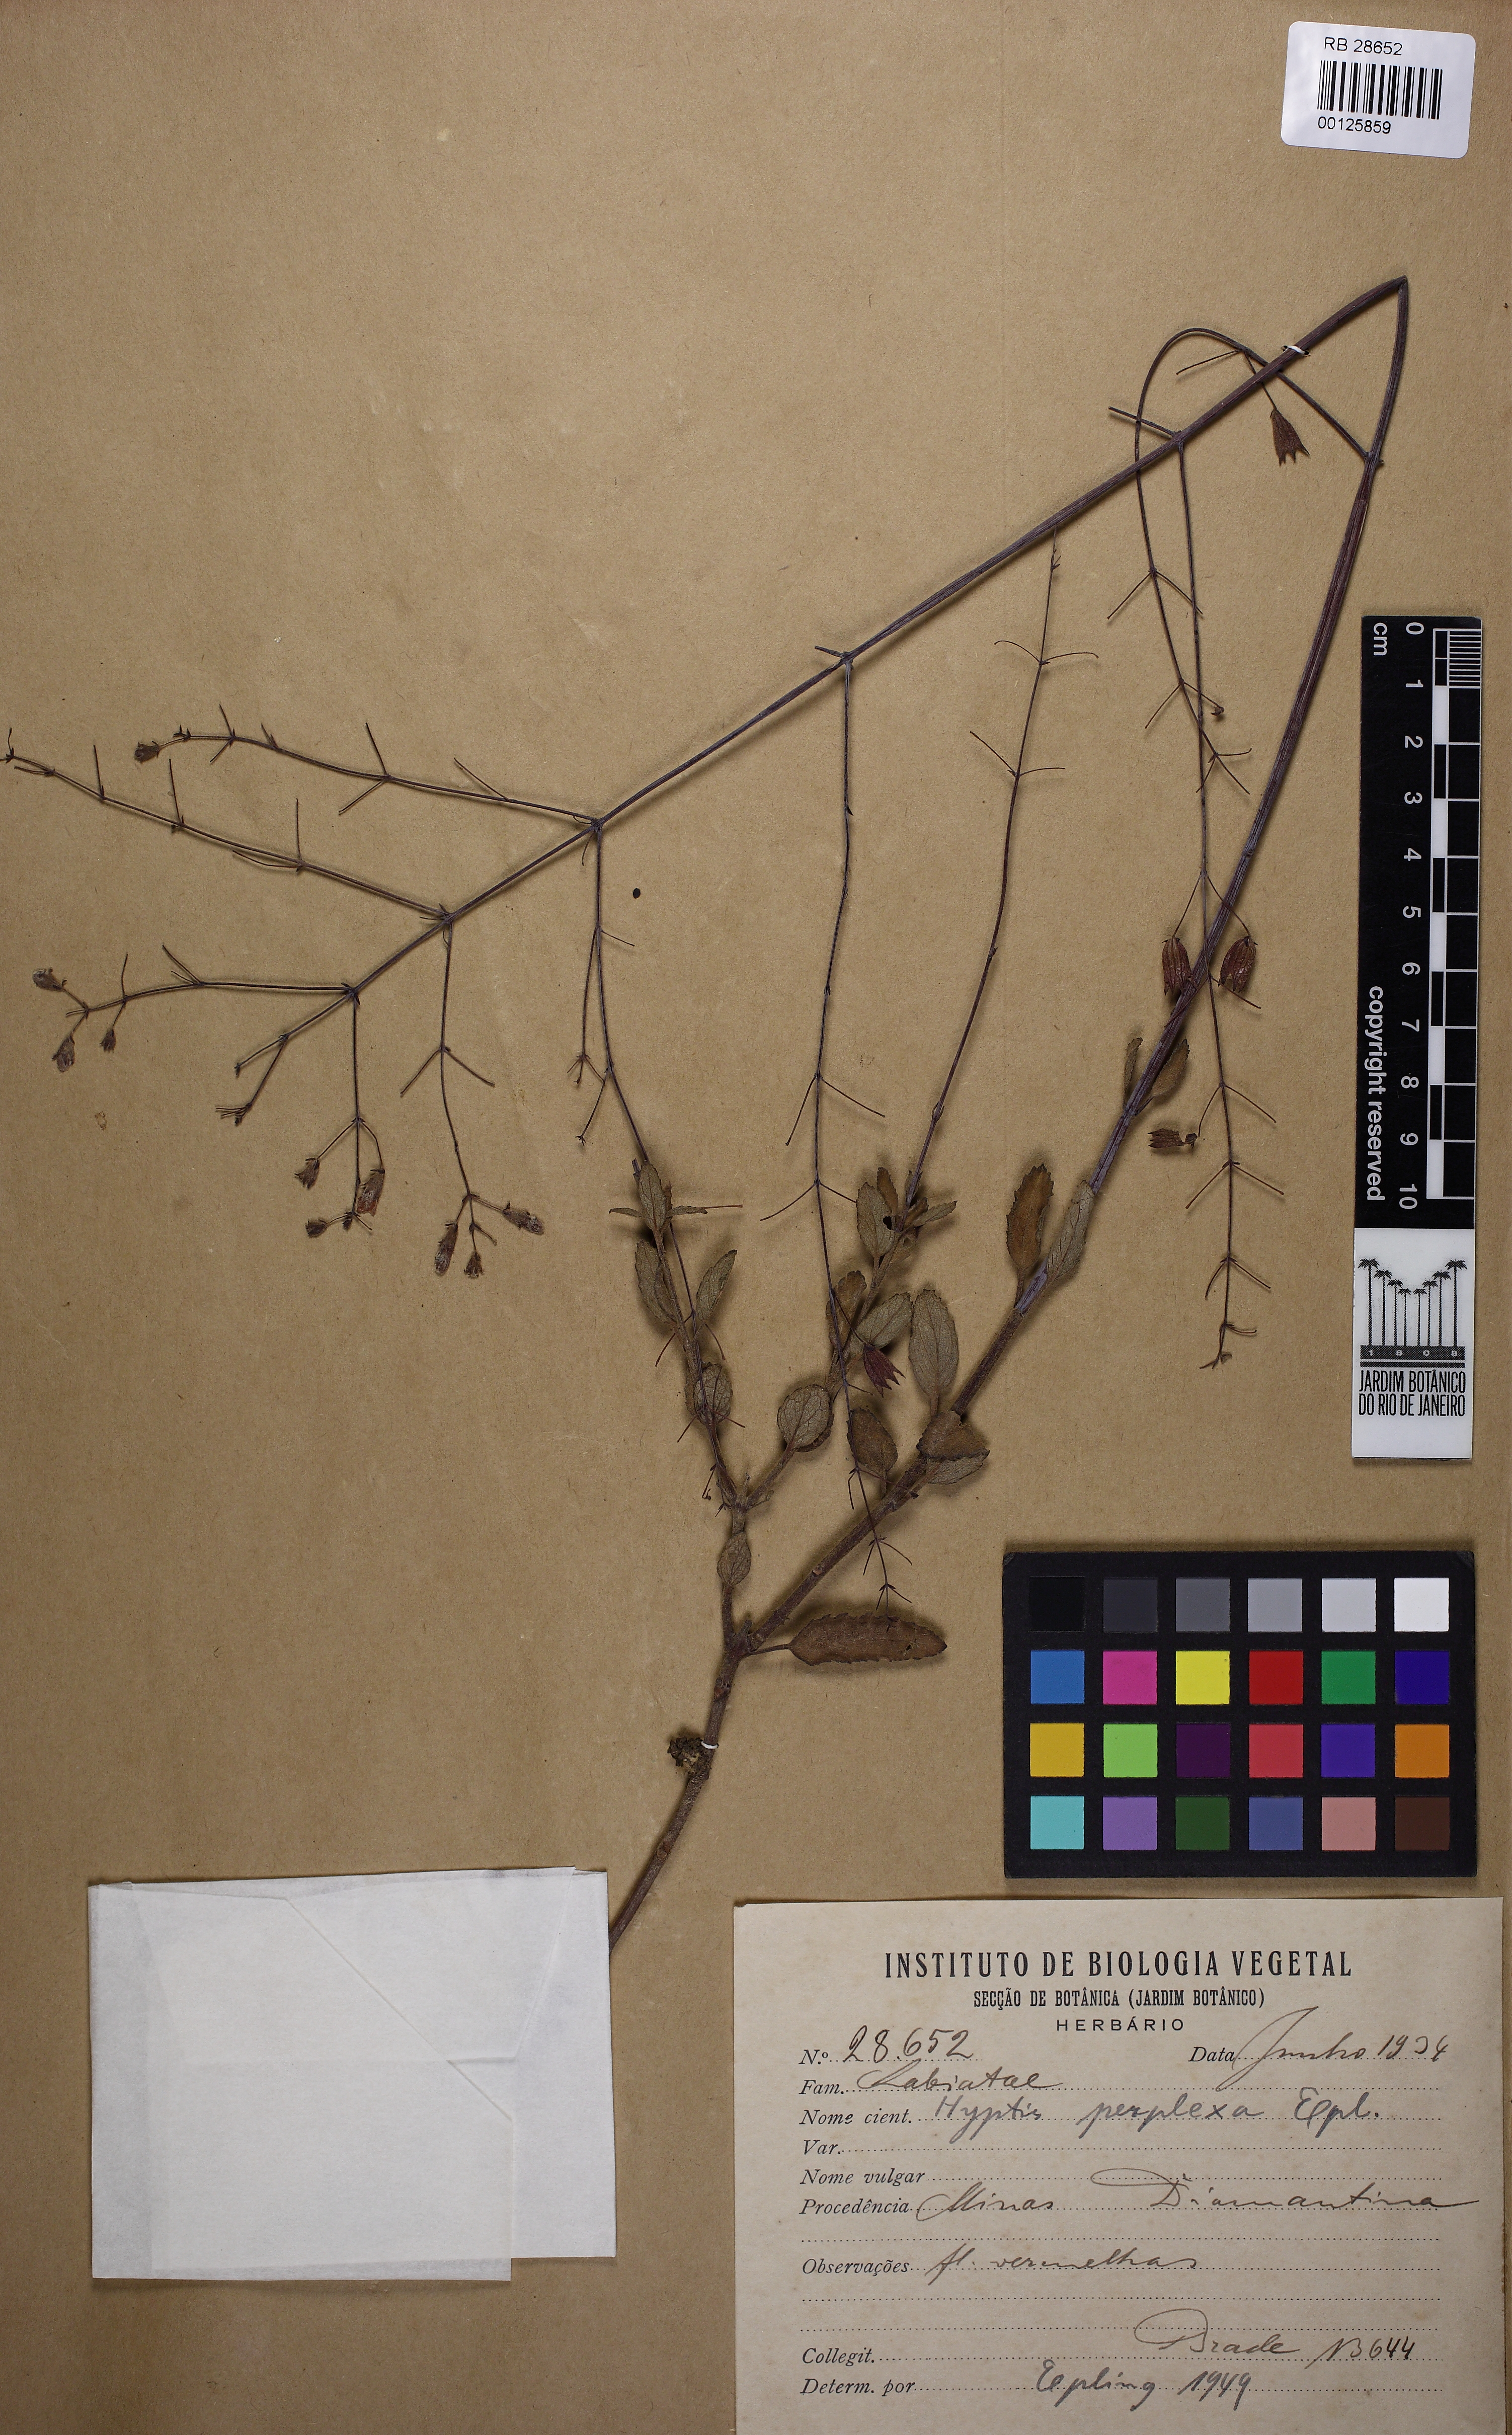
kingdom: Plantae
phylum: Tracheophyta
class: Magnoliopsida
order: Lamiales
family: Lamiaceae
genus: Hypenia
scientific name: Hypenia perplexa
